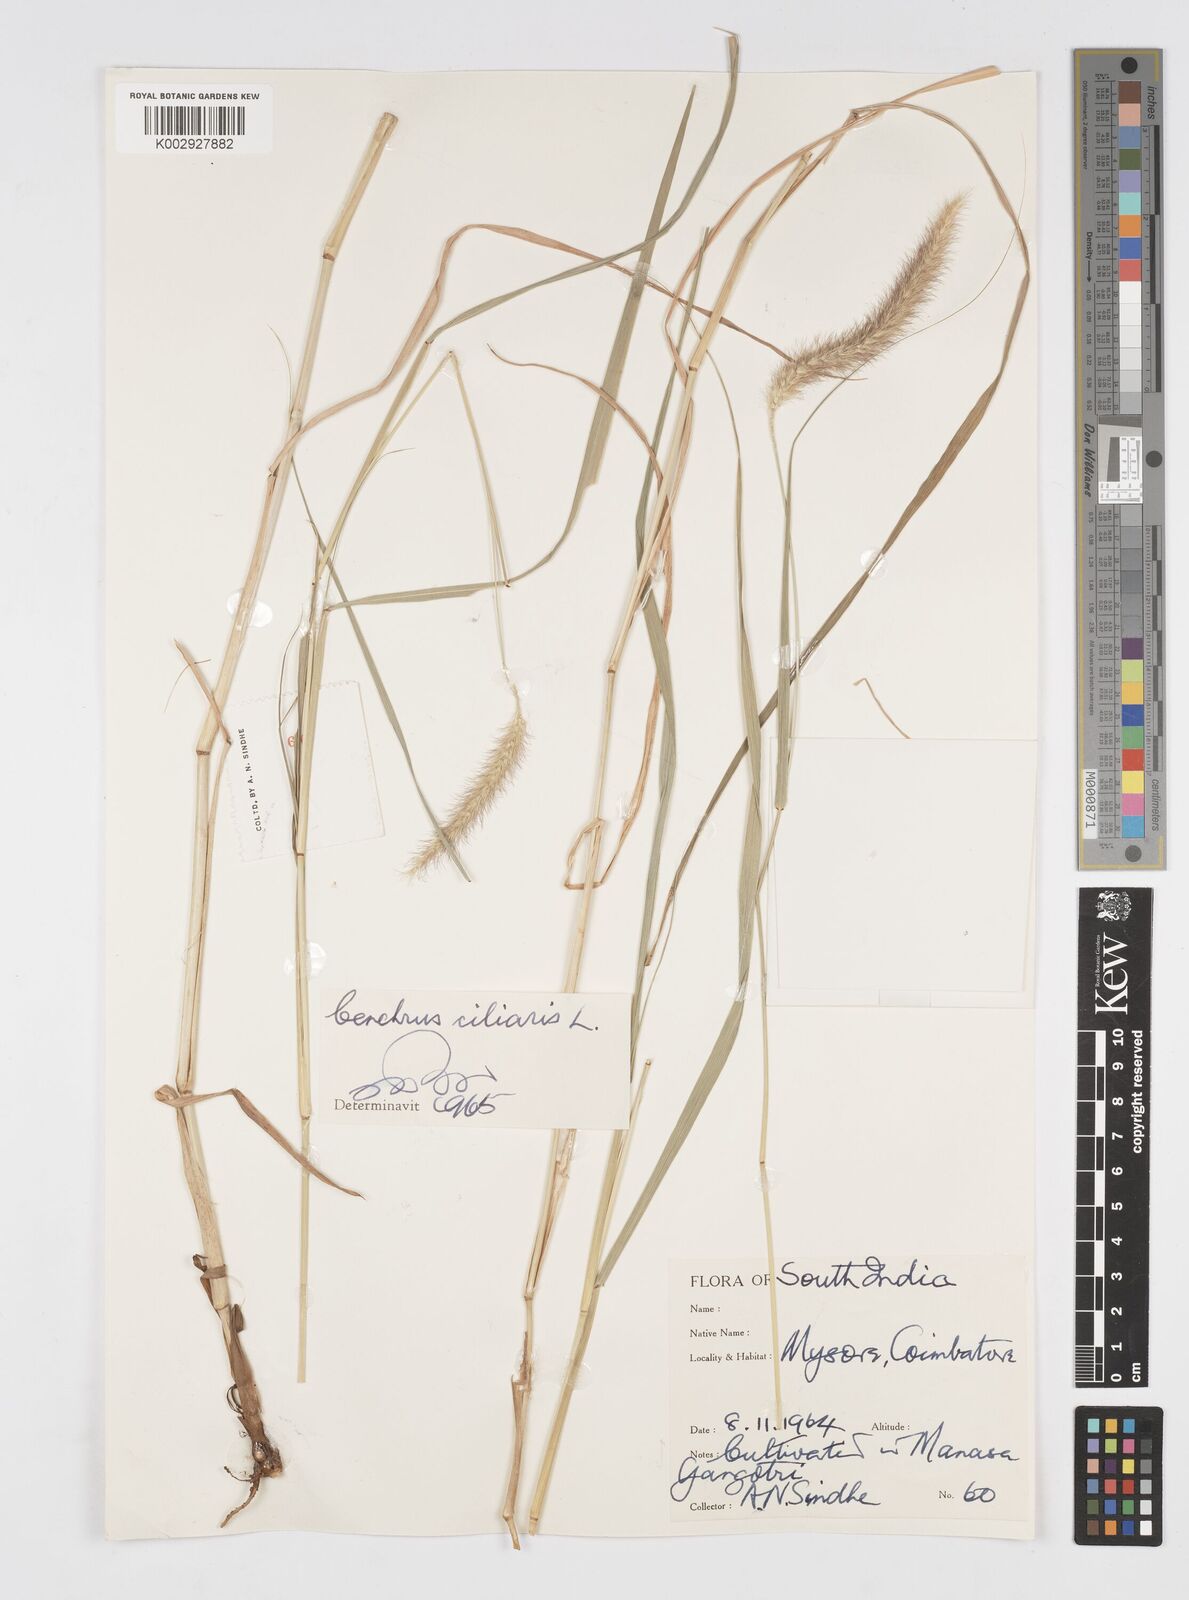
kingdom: Plantae
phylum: Tracheophyta
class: Liliopsida
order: Poales
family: Poaceae
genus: Cenchrus
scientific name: Cenchrus ciliaris
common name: Buffelgrass
